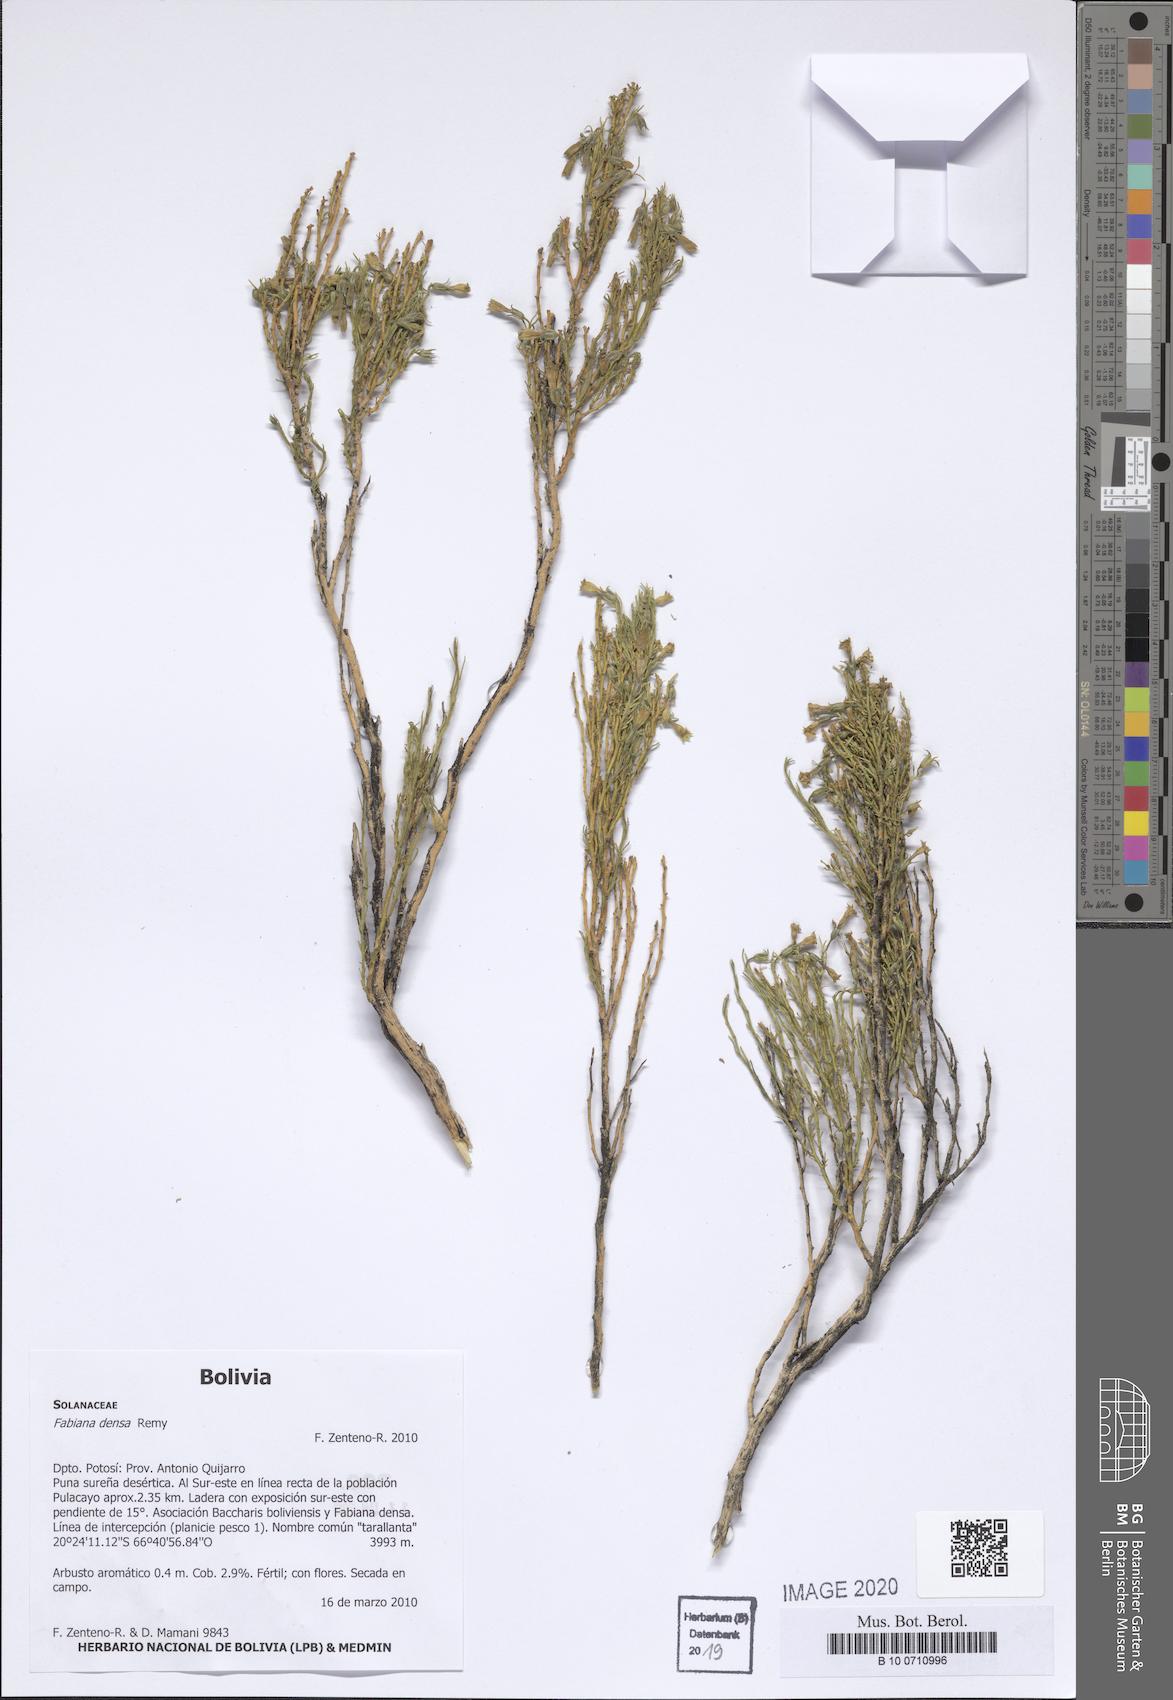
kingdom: Plantae
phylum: Tracheophyta
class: Magnoliopsida
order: Solanales
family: Solanaceae
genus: Fabiana
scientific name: Fabiana densa
